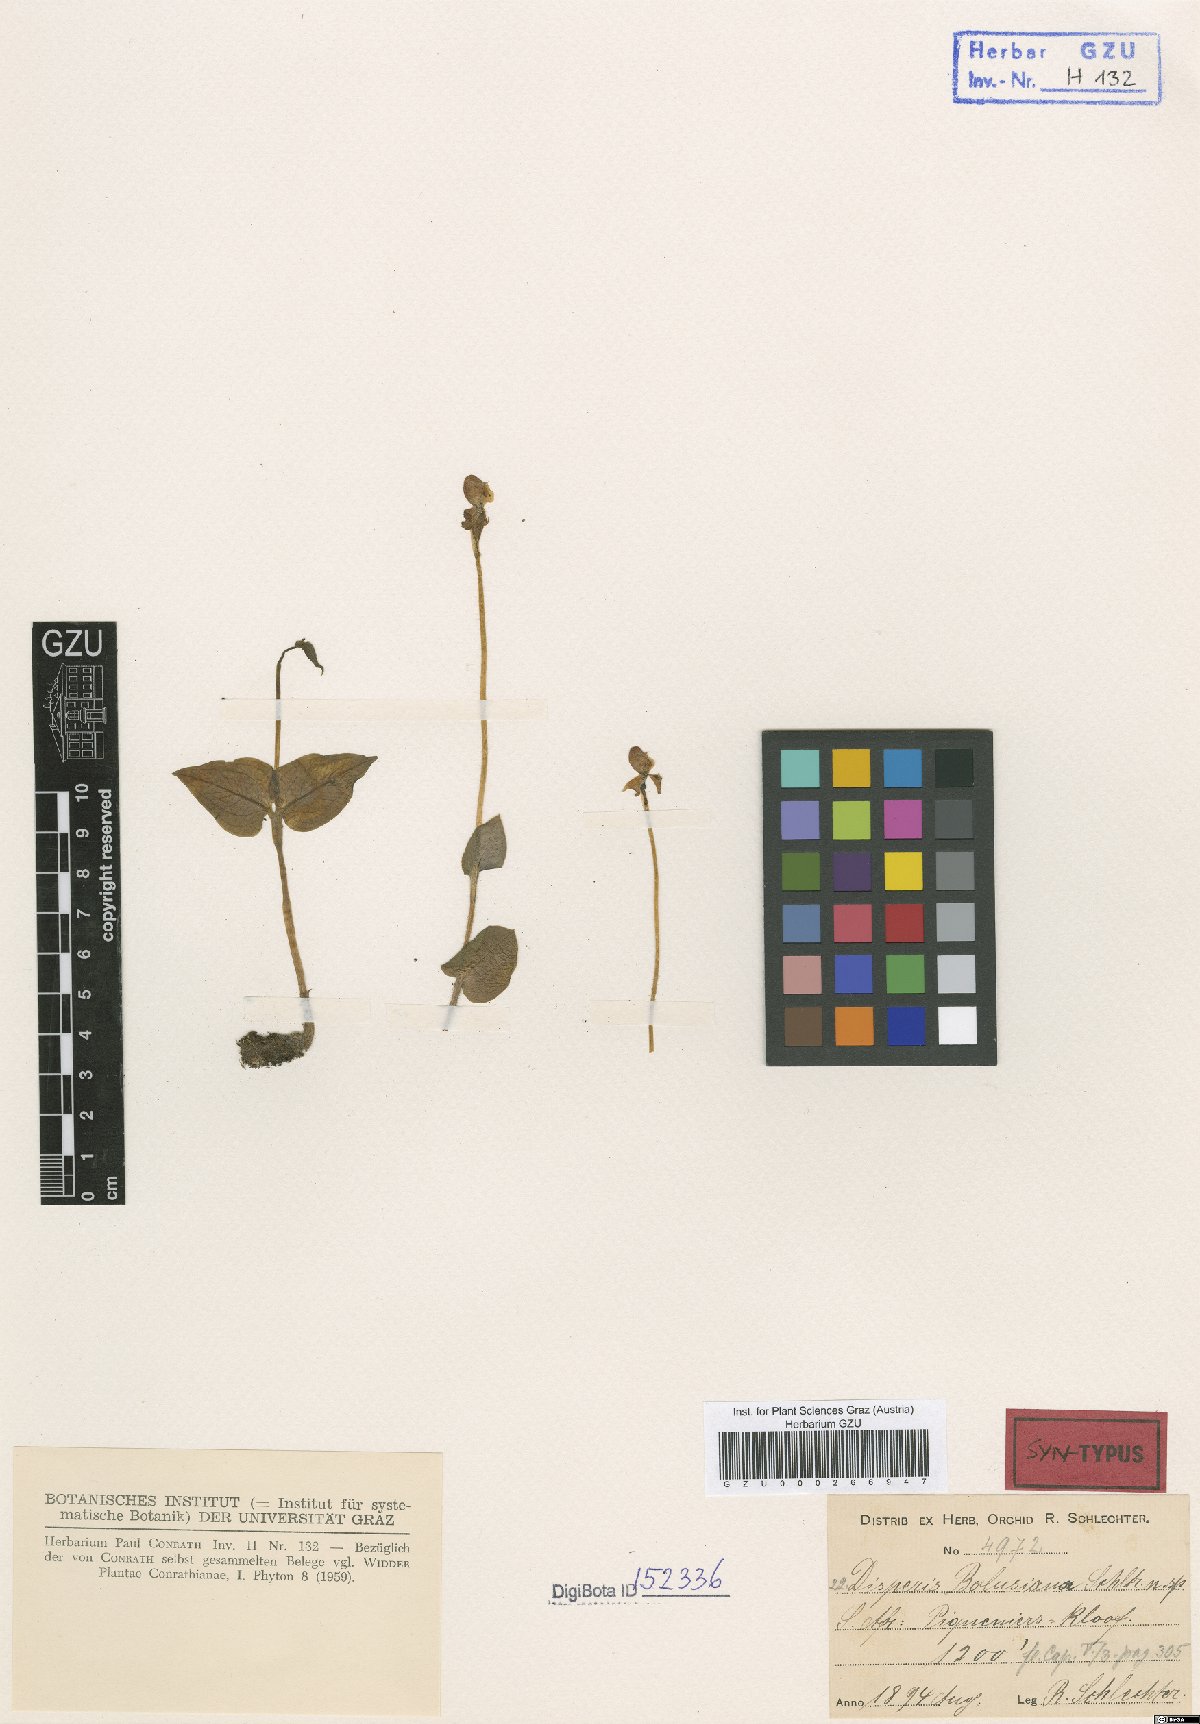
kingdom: Plantae
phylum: Tracheophyta
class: Liliopsida
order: Asparagales
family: Orchidaceae
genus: Disperis
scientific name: Disperis bolusiana
